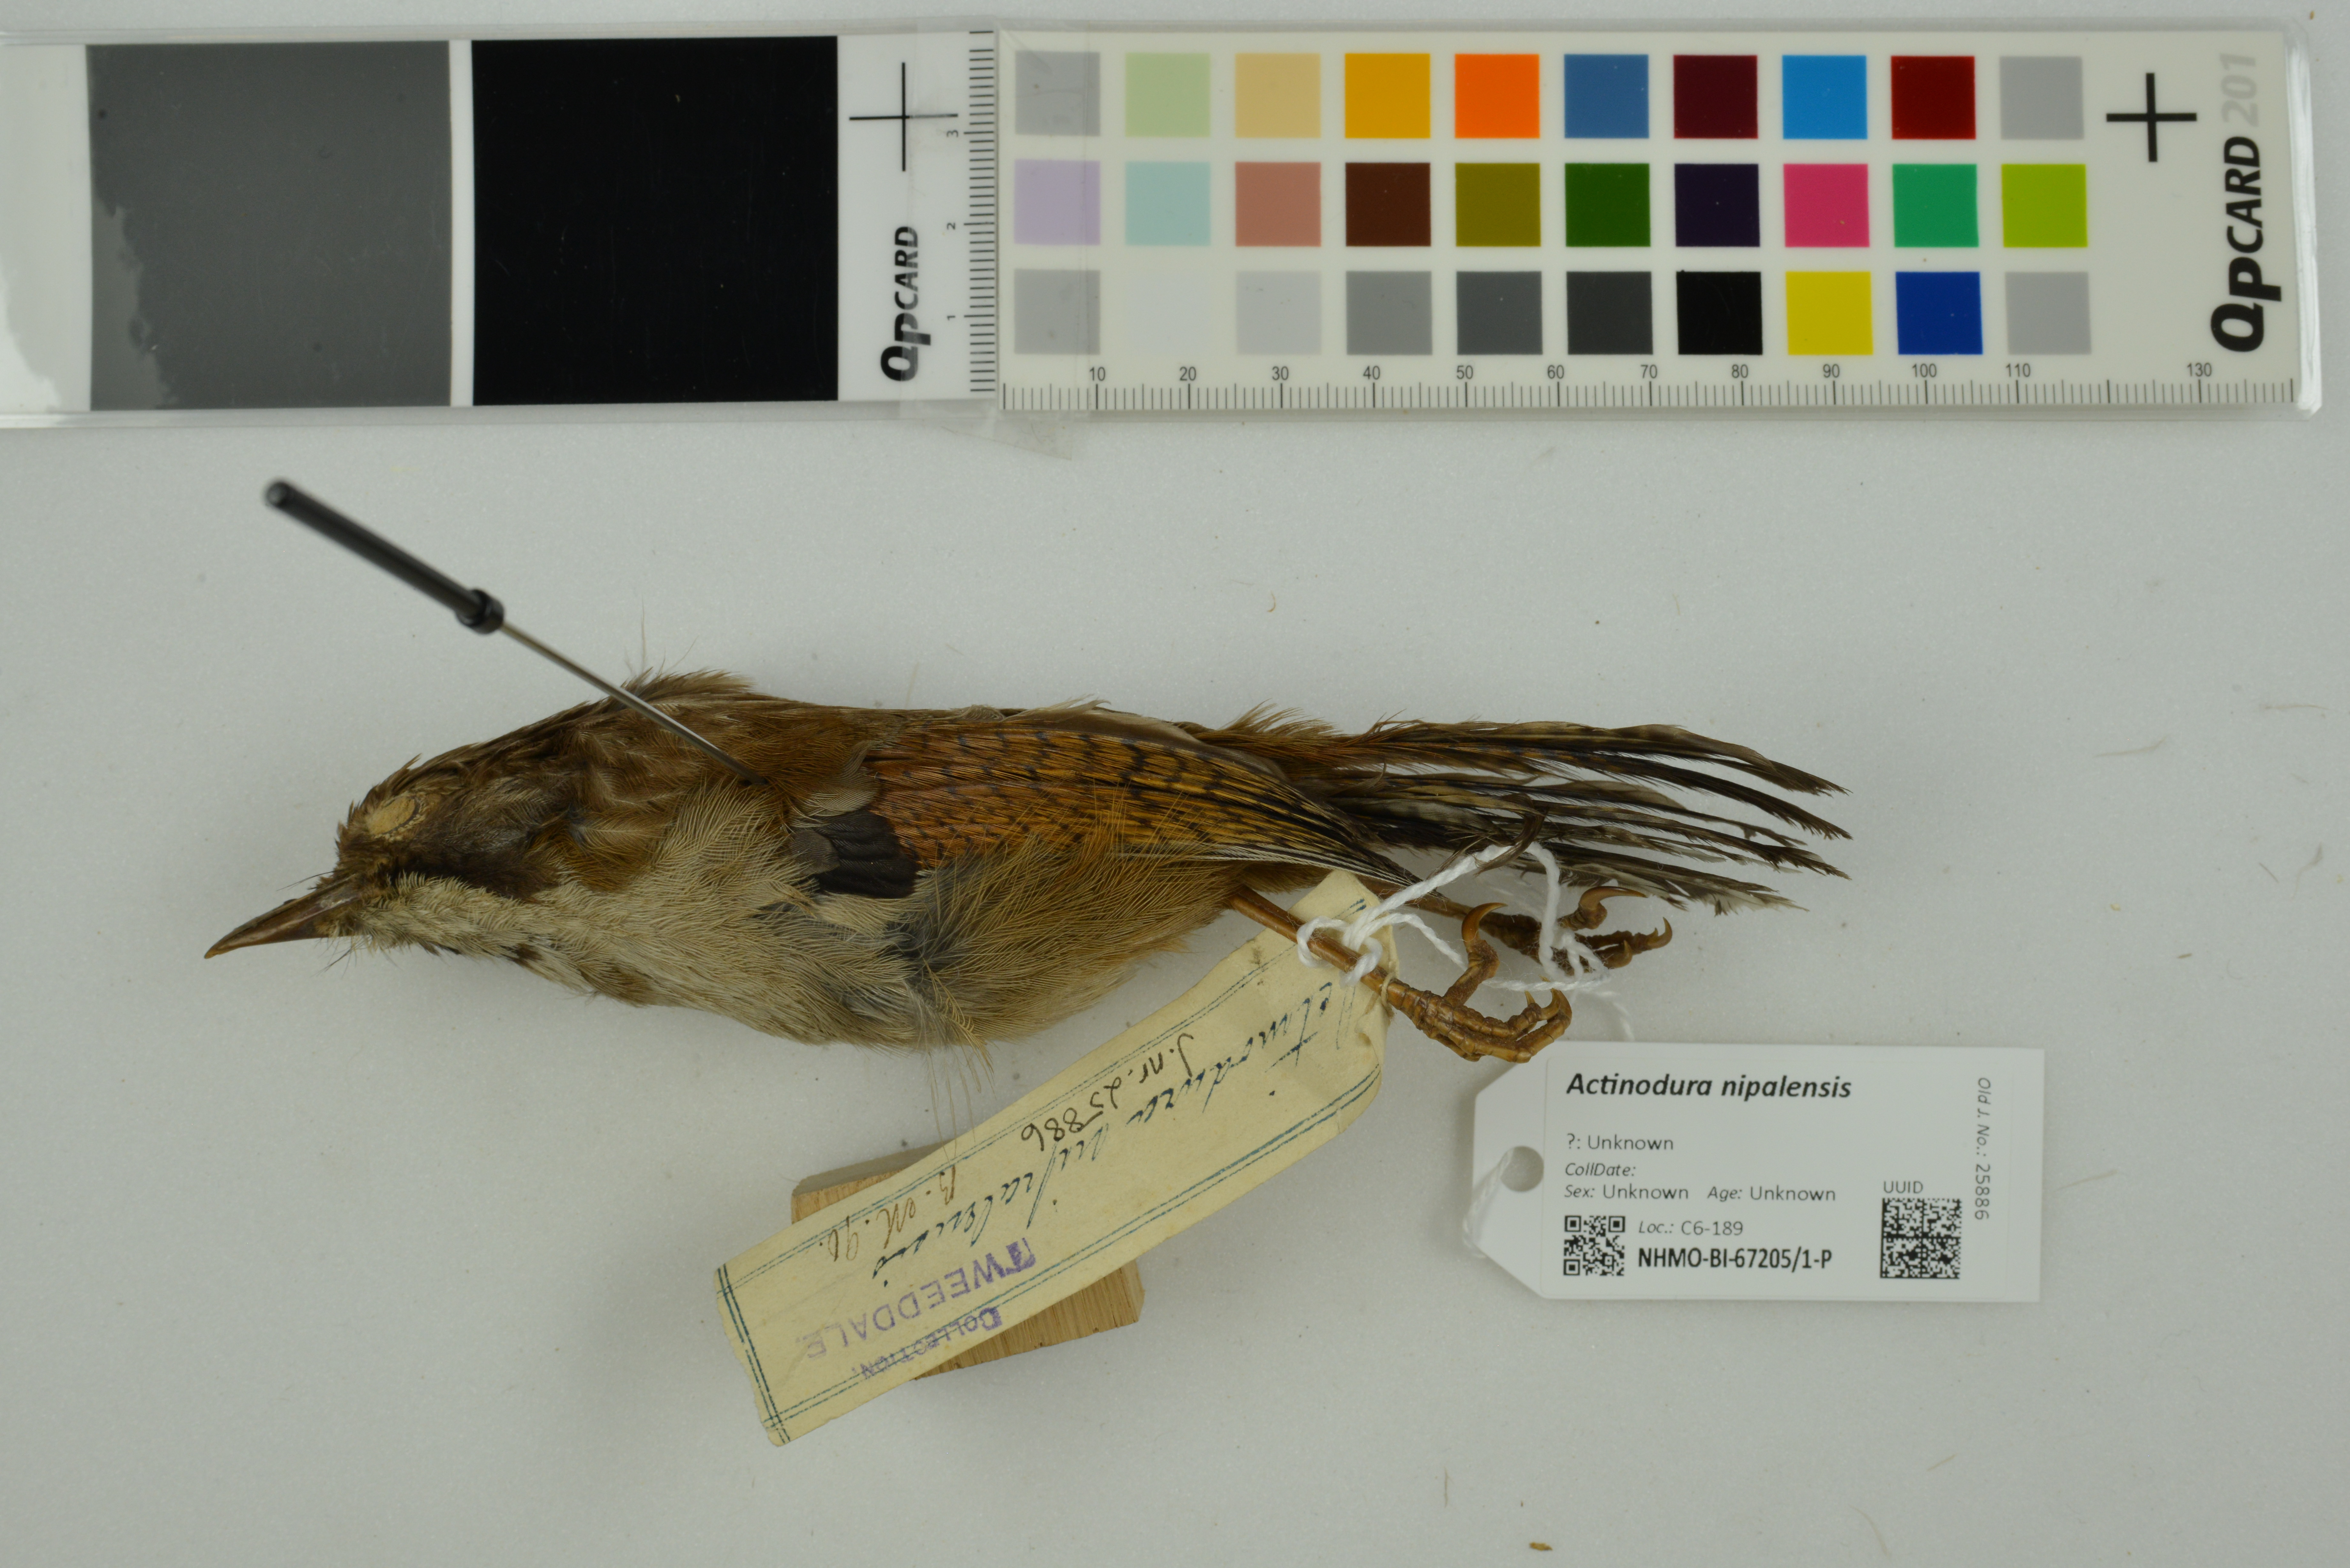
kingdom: Animalia
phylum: Chordata
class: Aves
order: Passeriformes
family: Leiothrichidae
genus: Actinodura
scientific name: Actinodura nipalensis
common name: Hoary-throated barwing
